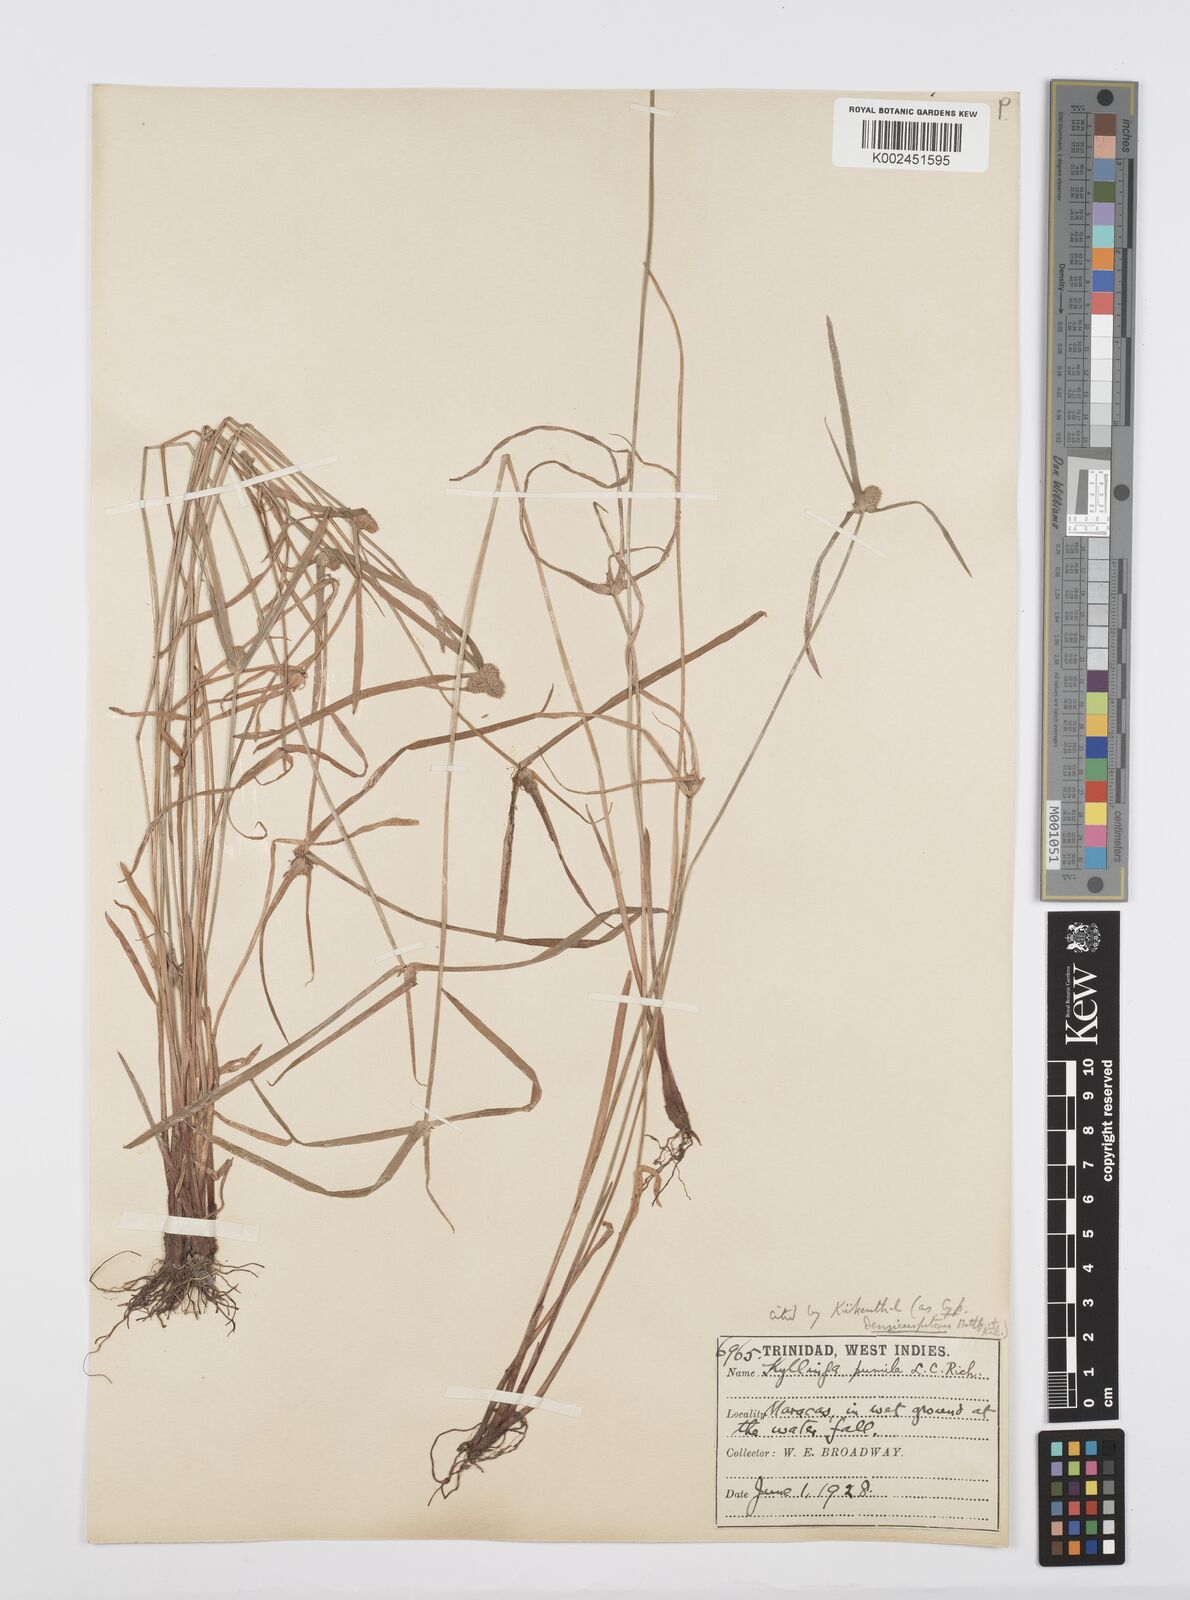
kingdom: Plantae
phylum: Tracheophyta
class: Liliopsida
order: Poales
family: Cyperaceae
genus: Cyperus
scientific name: Cyperus
